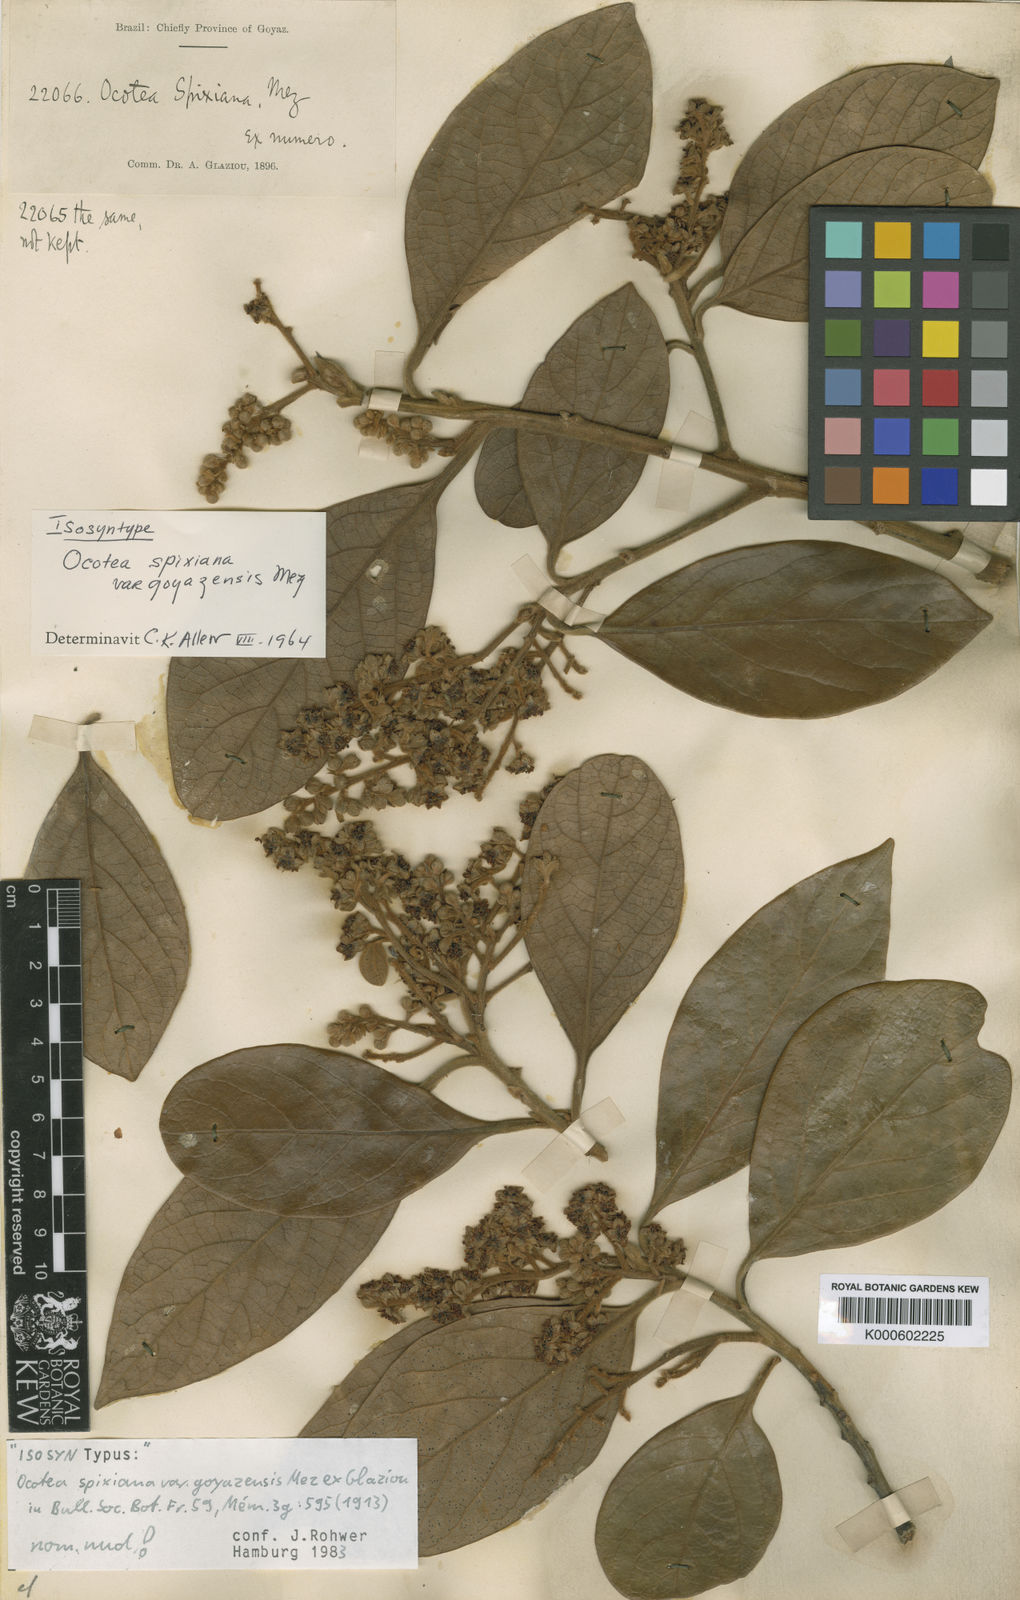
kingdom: Plantae
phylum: Tracheophyta
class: Magnoliopsida
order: Laurales
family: Lauraceae
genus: Ocotea
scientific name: Ocotea spixiana
